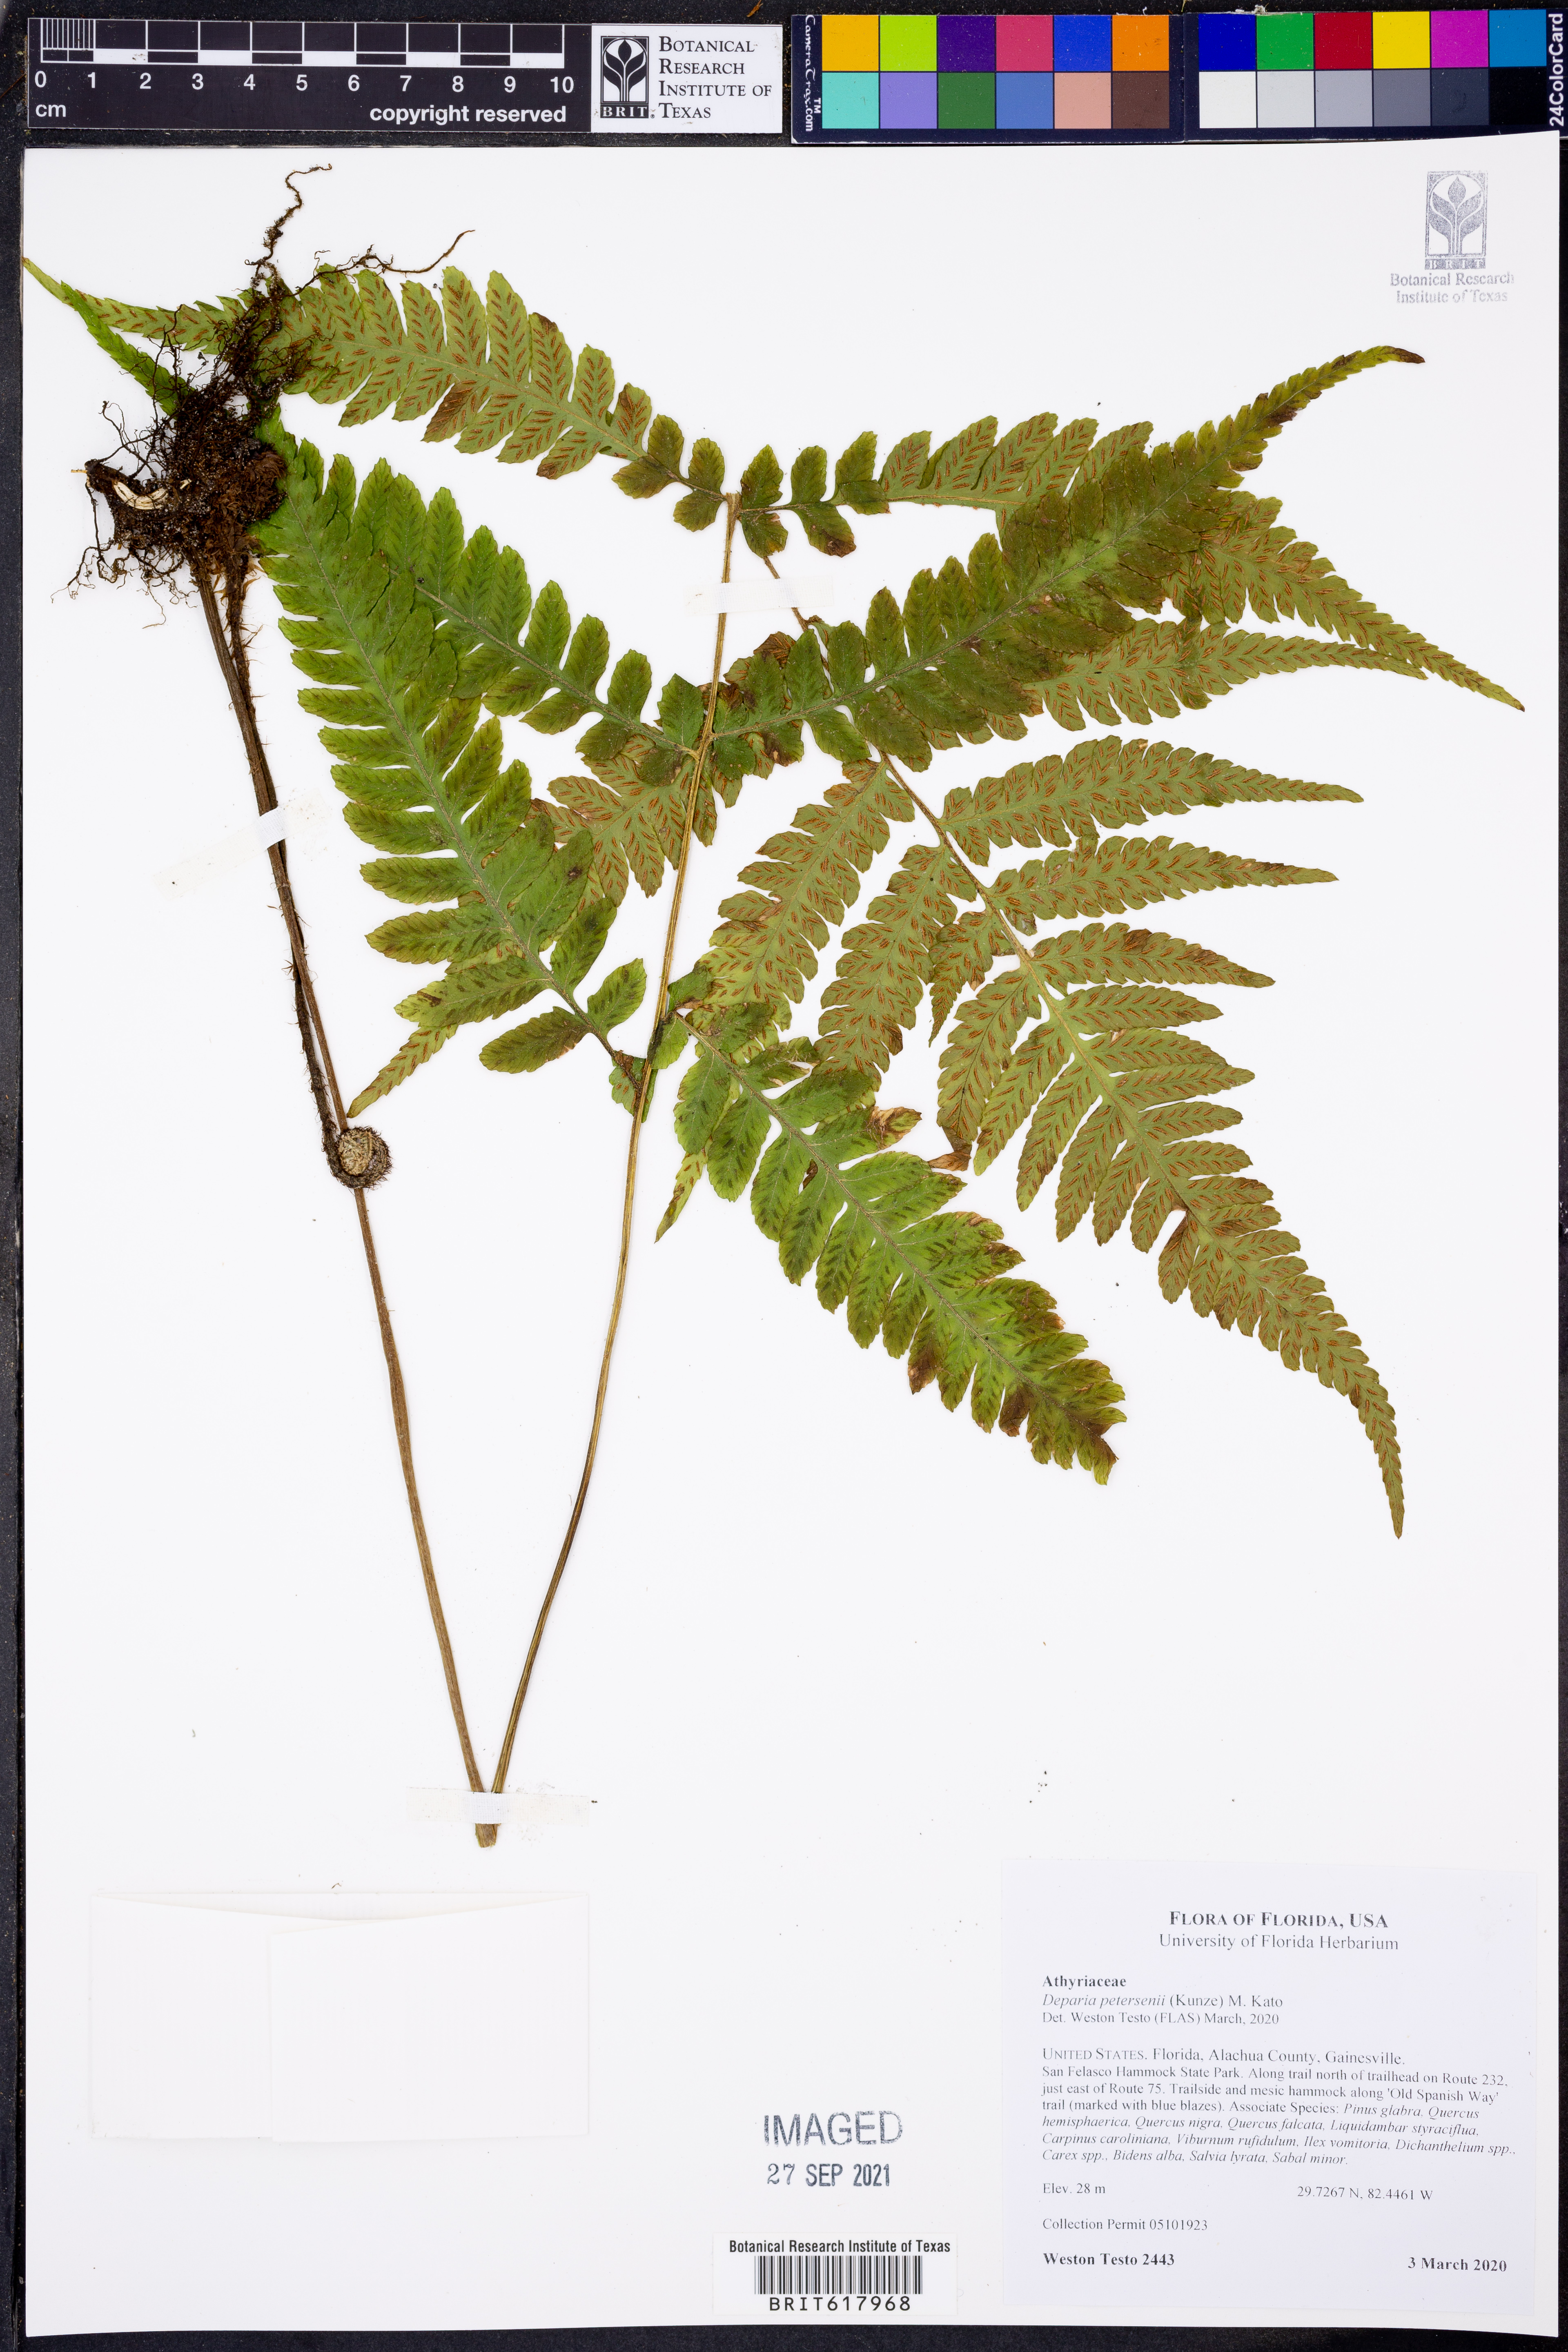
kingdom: Plantae
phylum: Tracheophyta
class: Polypodiopsida
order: Polypodiales
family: Athyriaceae
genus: Deparia
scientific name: Deparia petersenii
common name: Japanese false spleenwort
